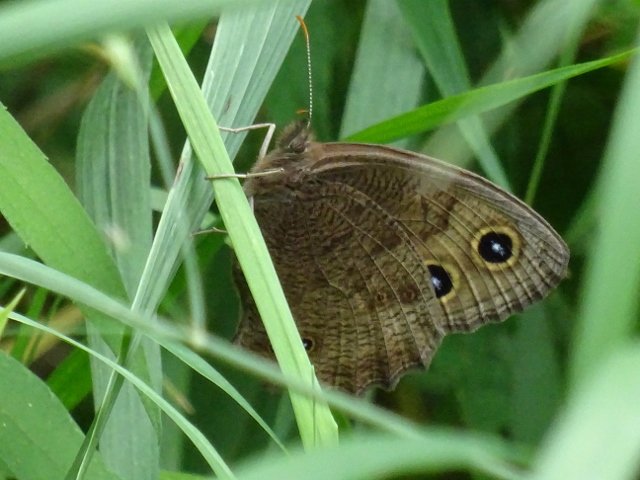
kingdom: Animalia
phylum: Arthropoda
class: Insecta
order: Lepidoptera
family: Nymphalidae
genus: Cercyonis
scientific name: Cercyonis pegala
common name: Common Wood-Nymph
